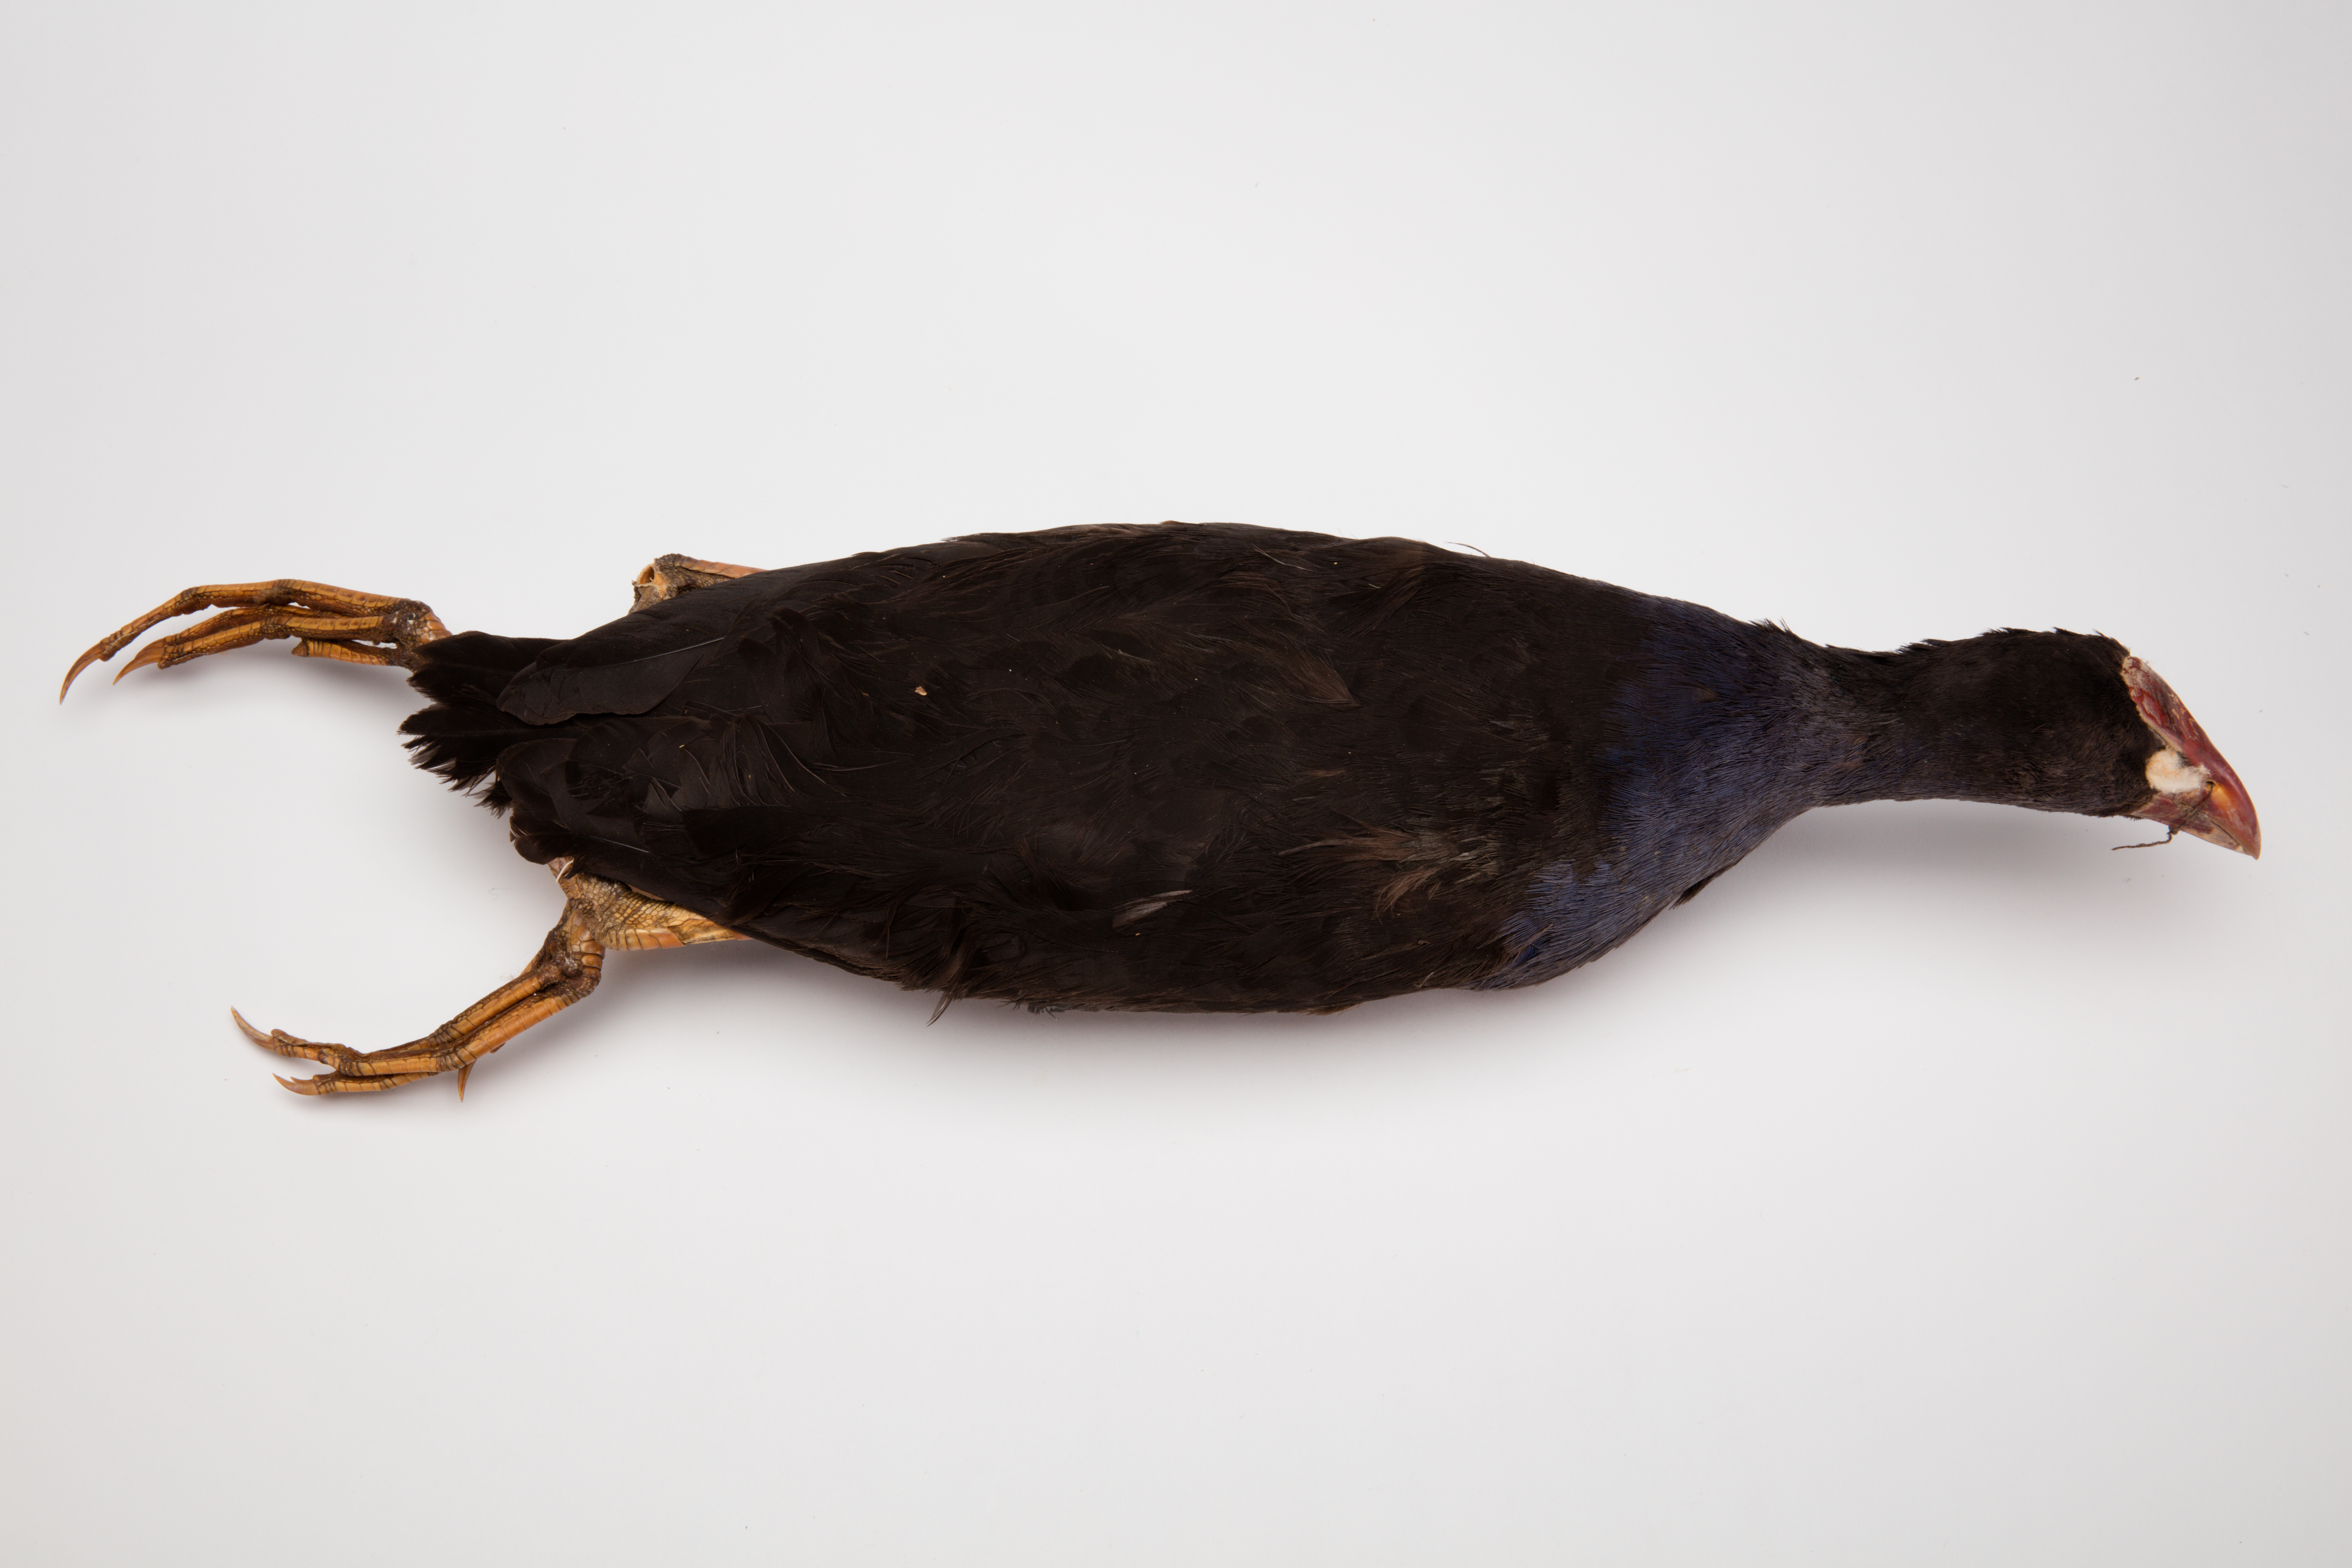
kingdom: Animalia
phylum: Chordata
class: Aves
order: Gruiformes
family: Rallidae
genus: Porphyrio
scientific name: Porphyrio melanotus
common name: Australasian swamphen
